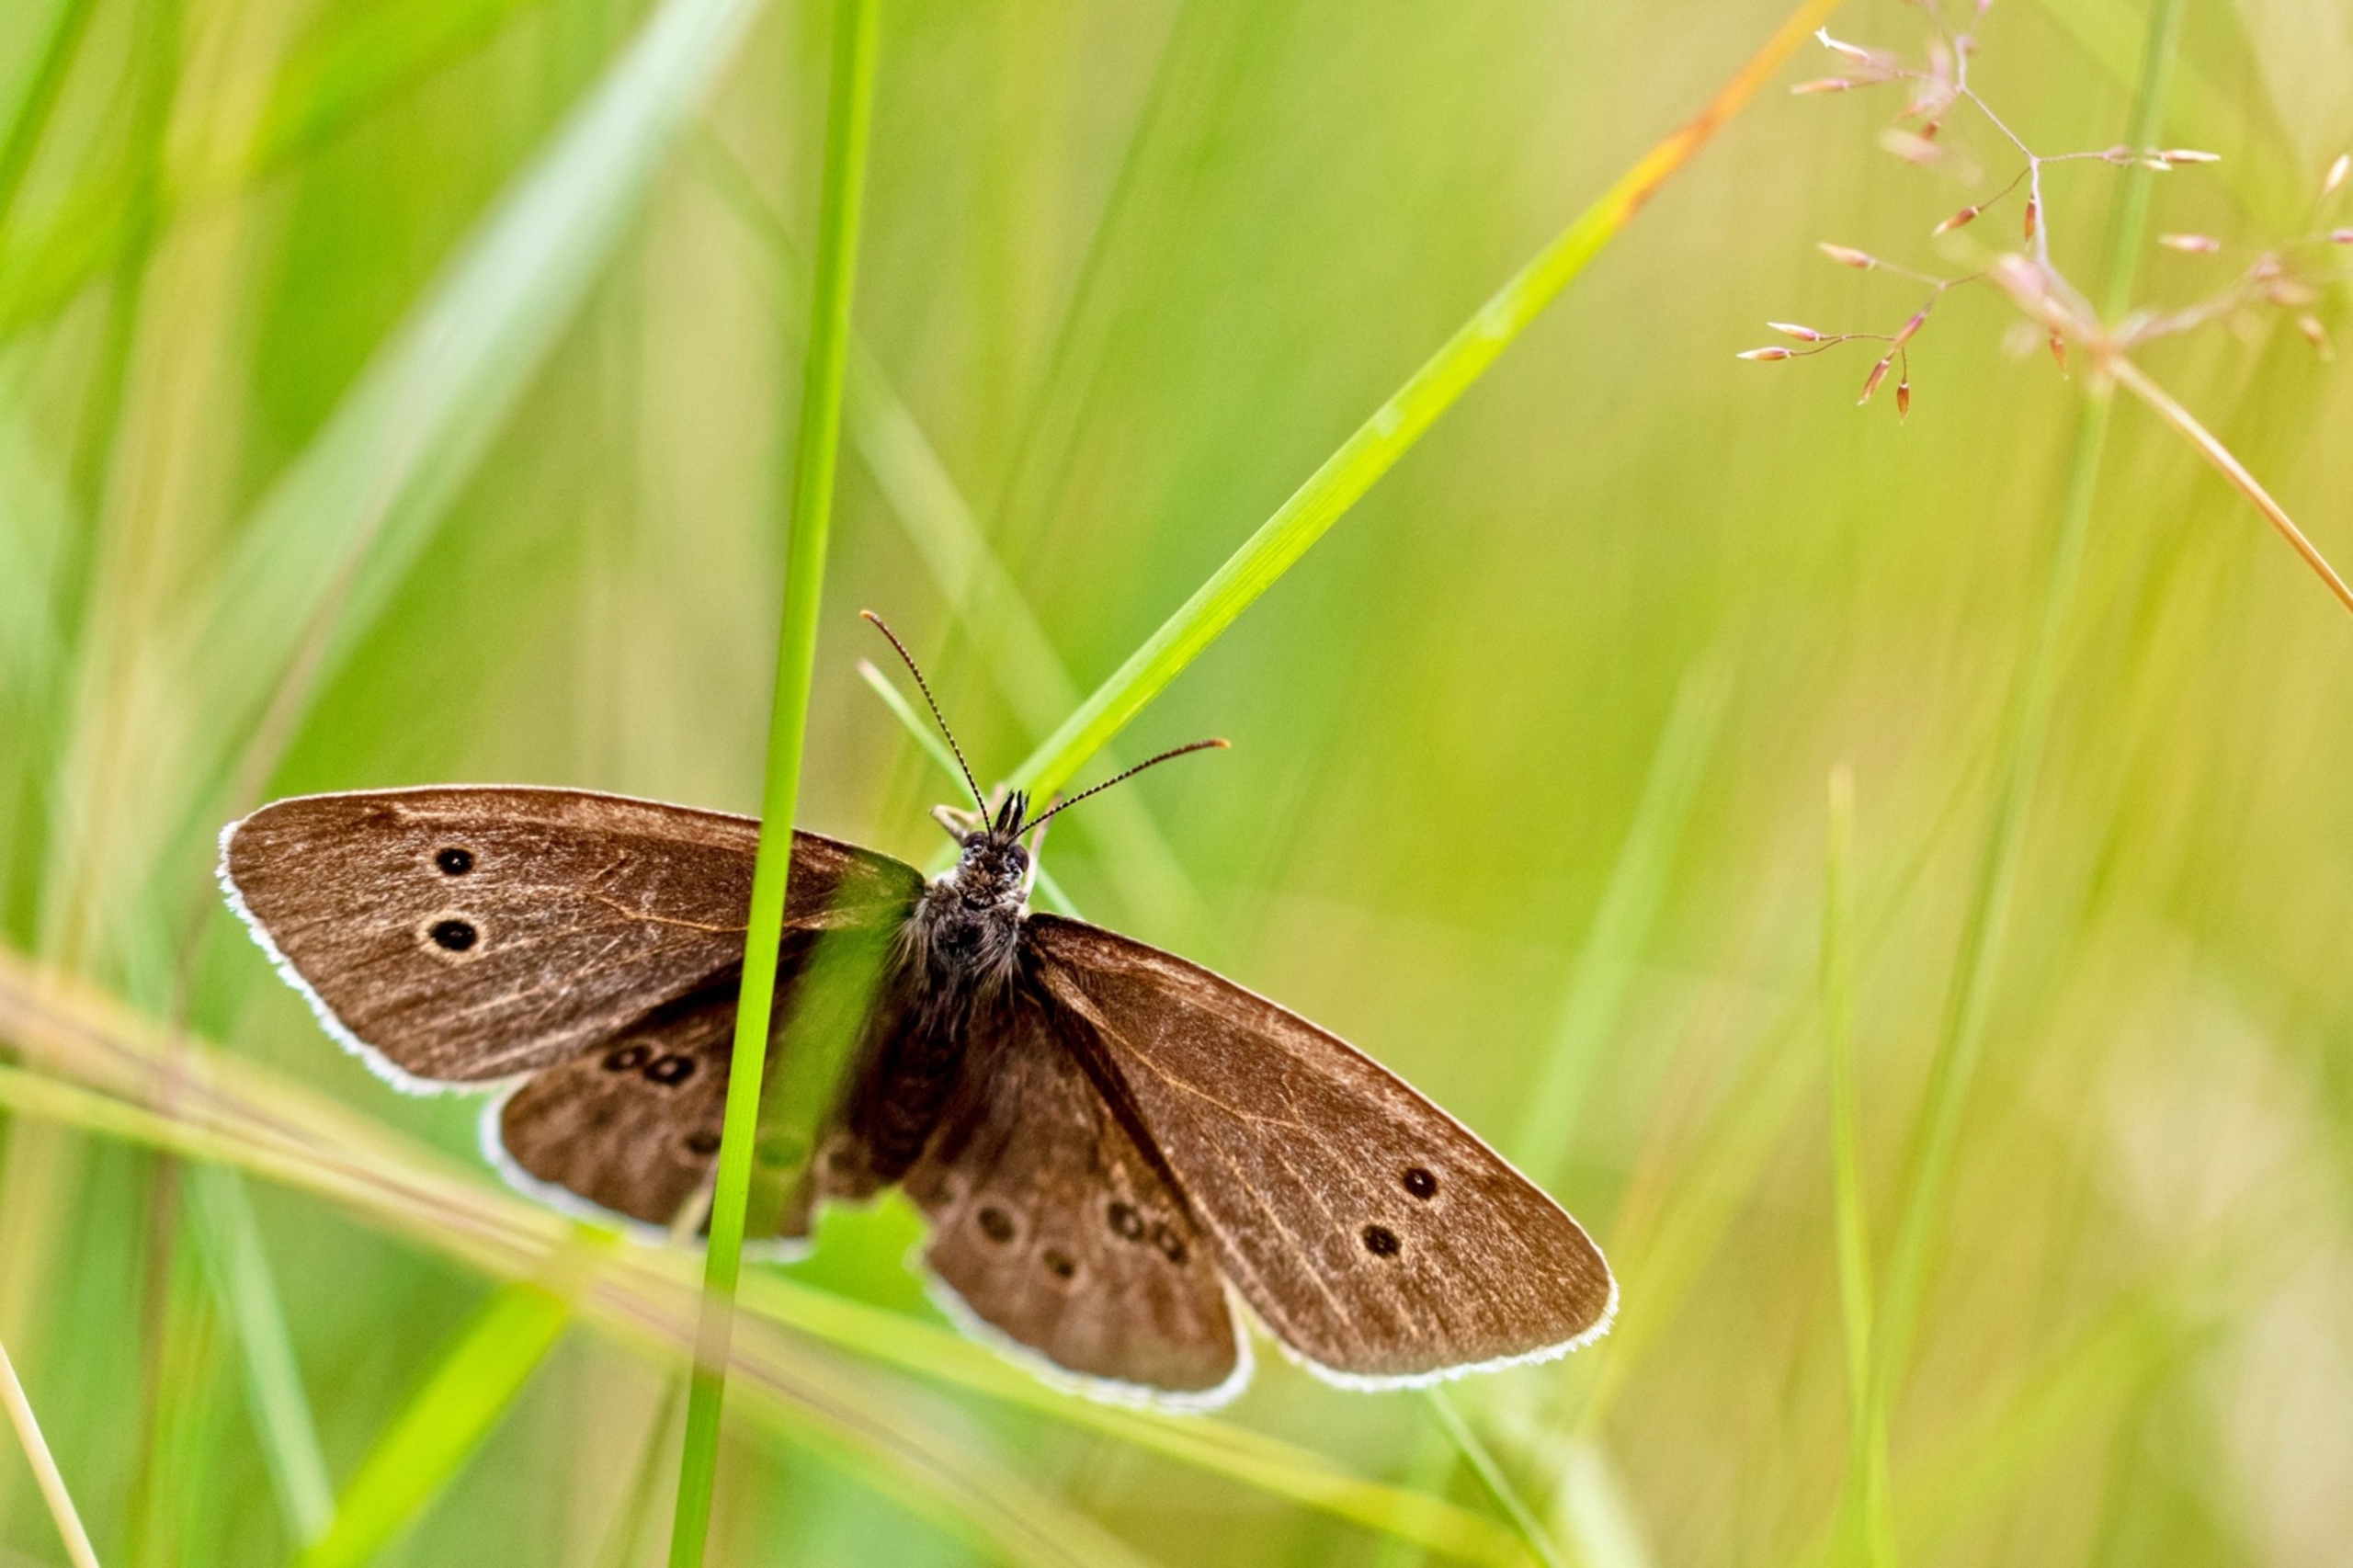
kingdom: Animalia
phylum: Arthropoda
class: Insecta
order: Lepidoptera
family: Nymphalidae
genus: Aphantopus
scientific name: Aphantopus hyperantus
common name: Engrandøje
